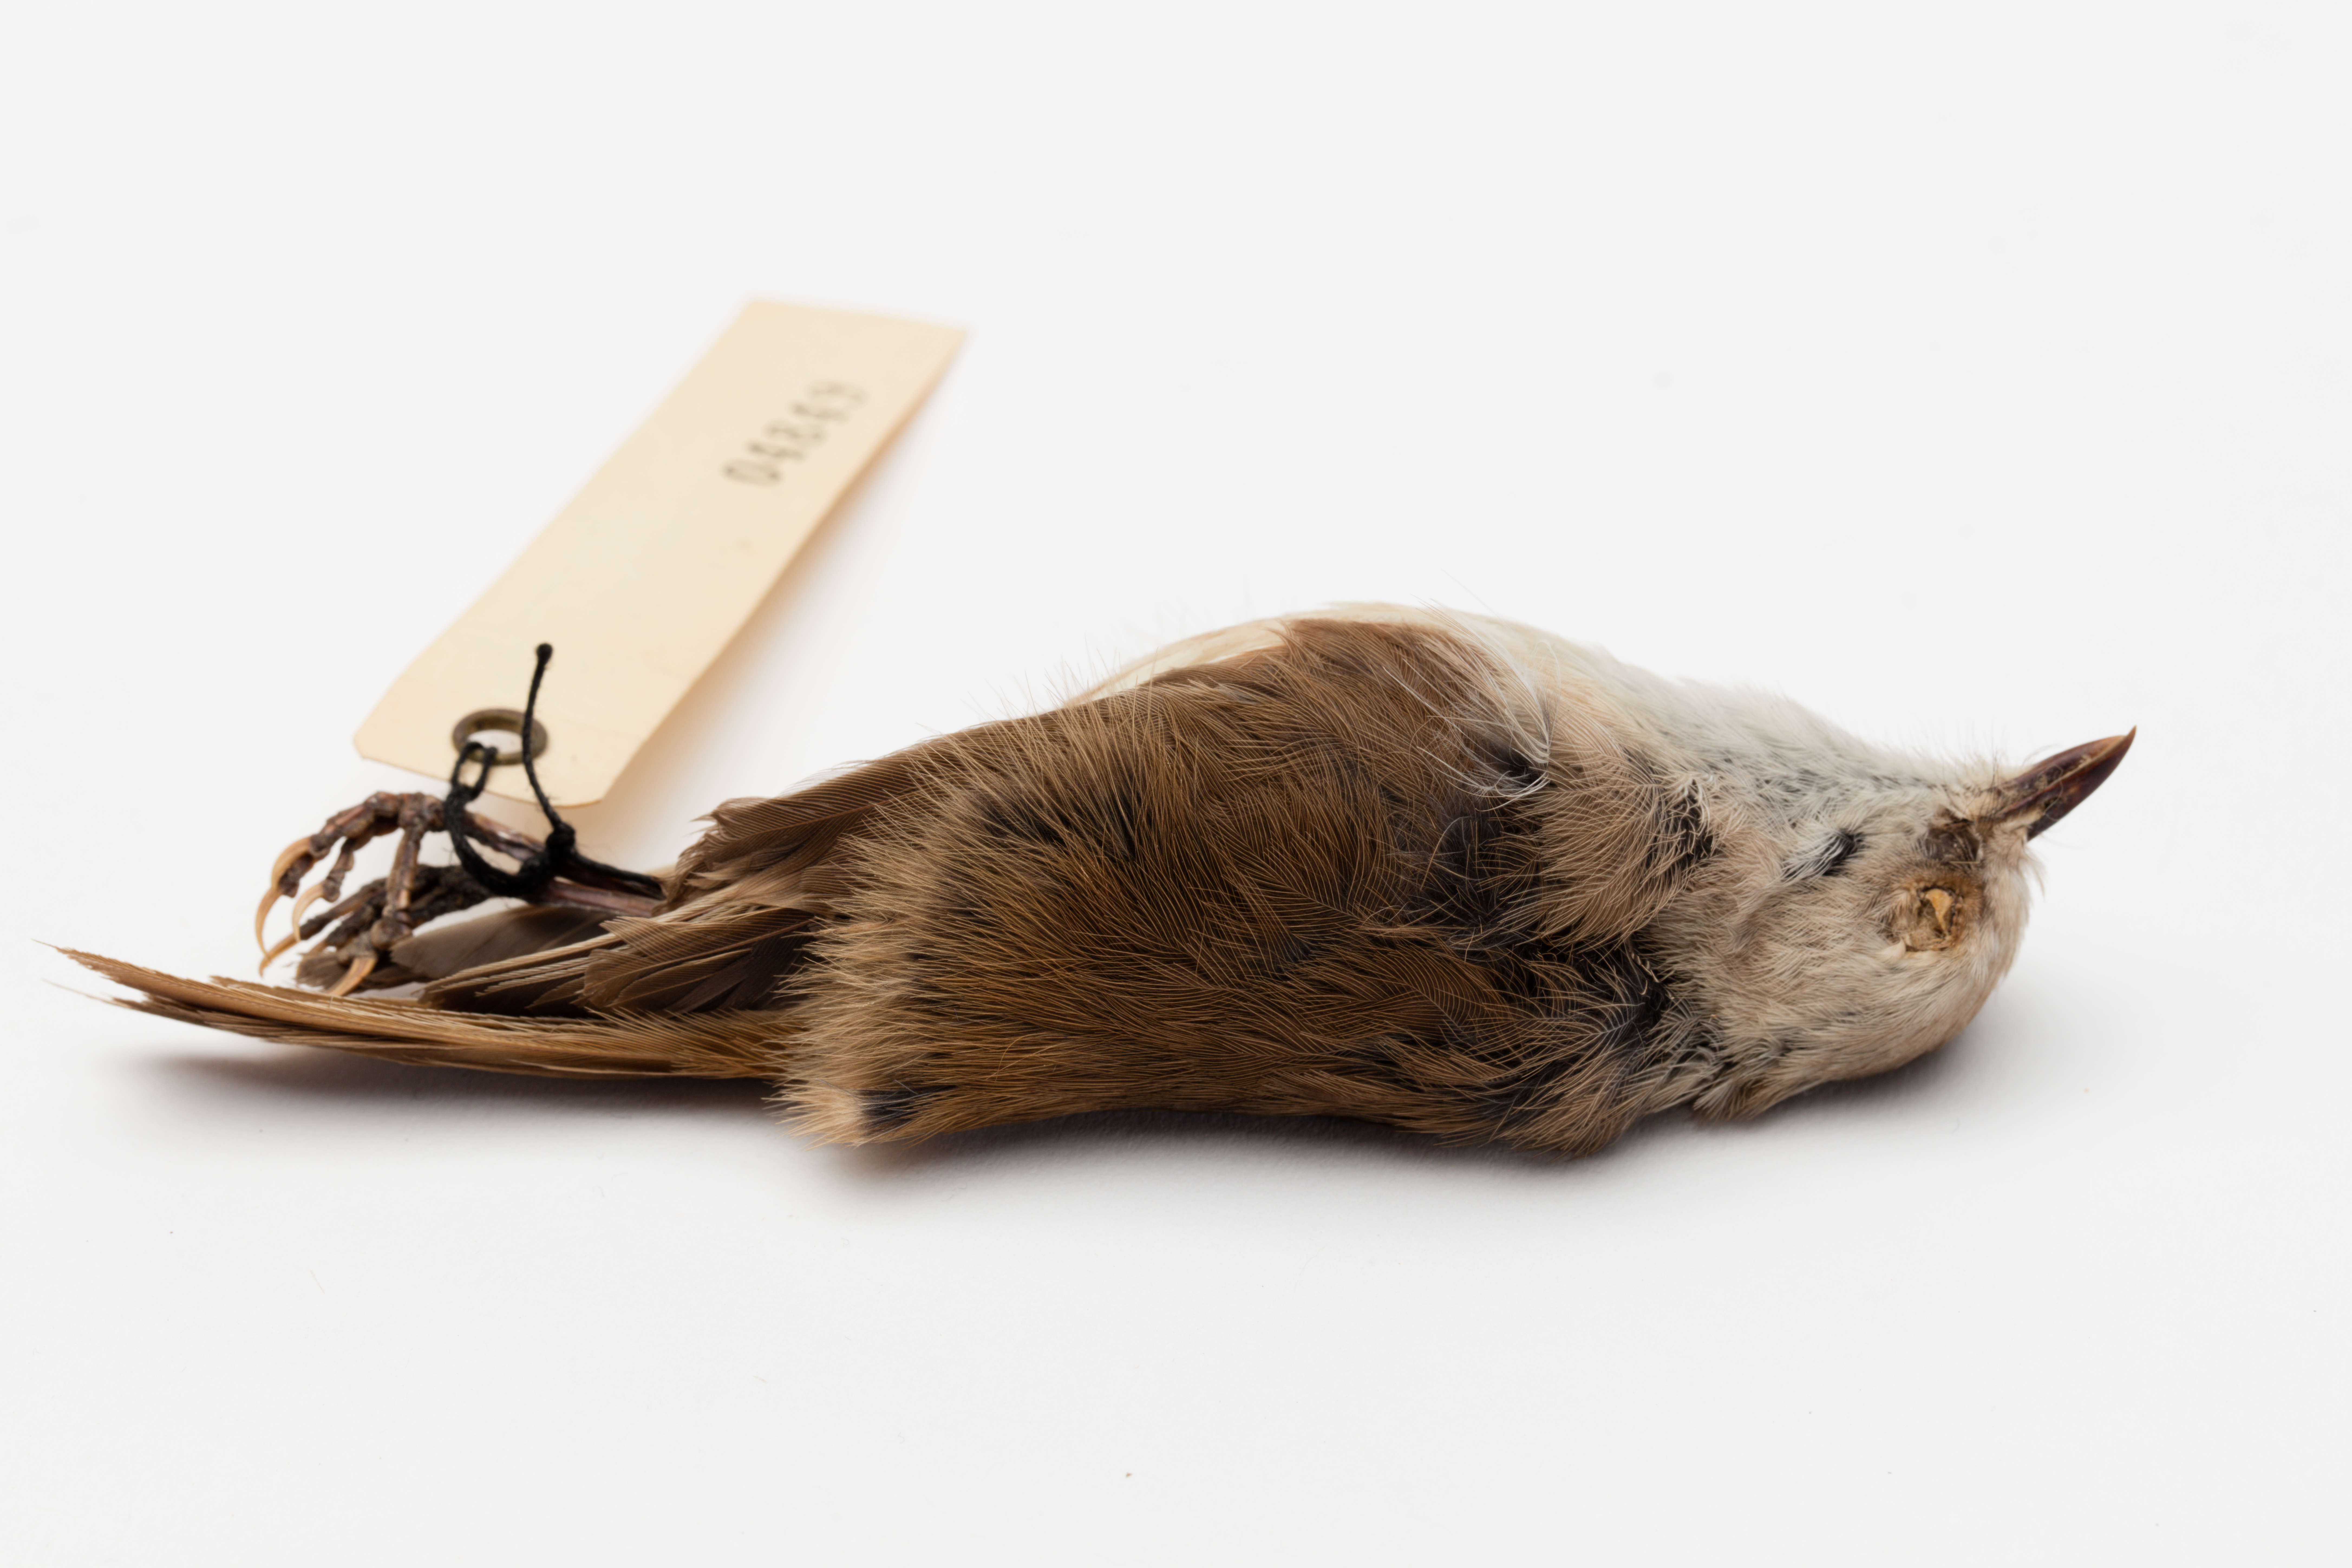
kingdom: Animalia
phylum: Chordata
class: Aves
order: Passeriformes
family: Acanthizidae
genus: Mohoua
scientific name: Mohoua albicilla
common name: Whitehead
